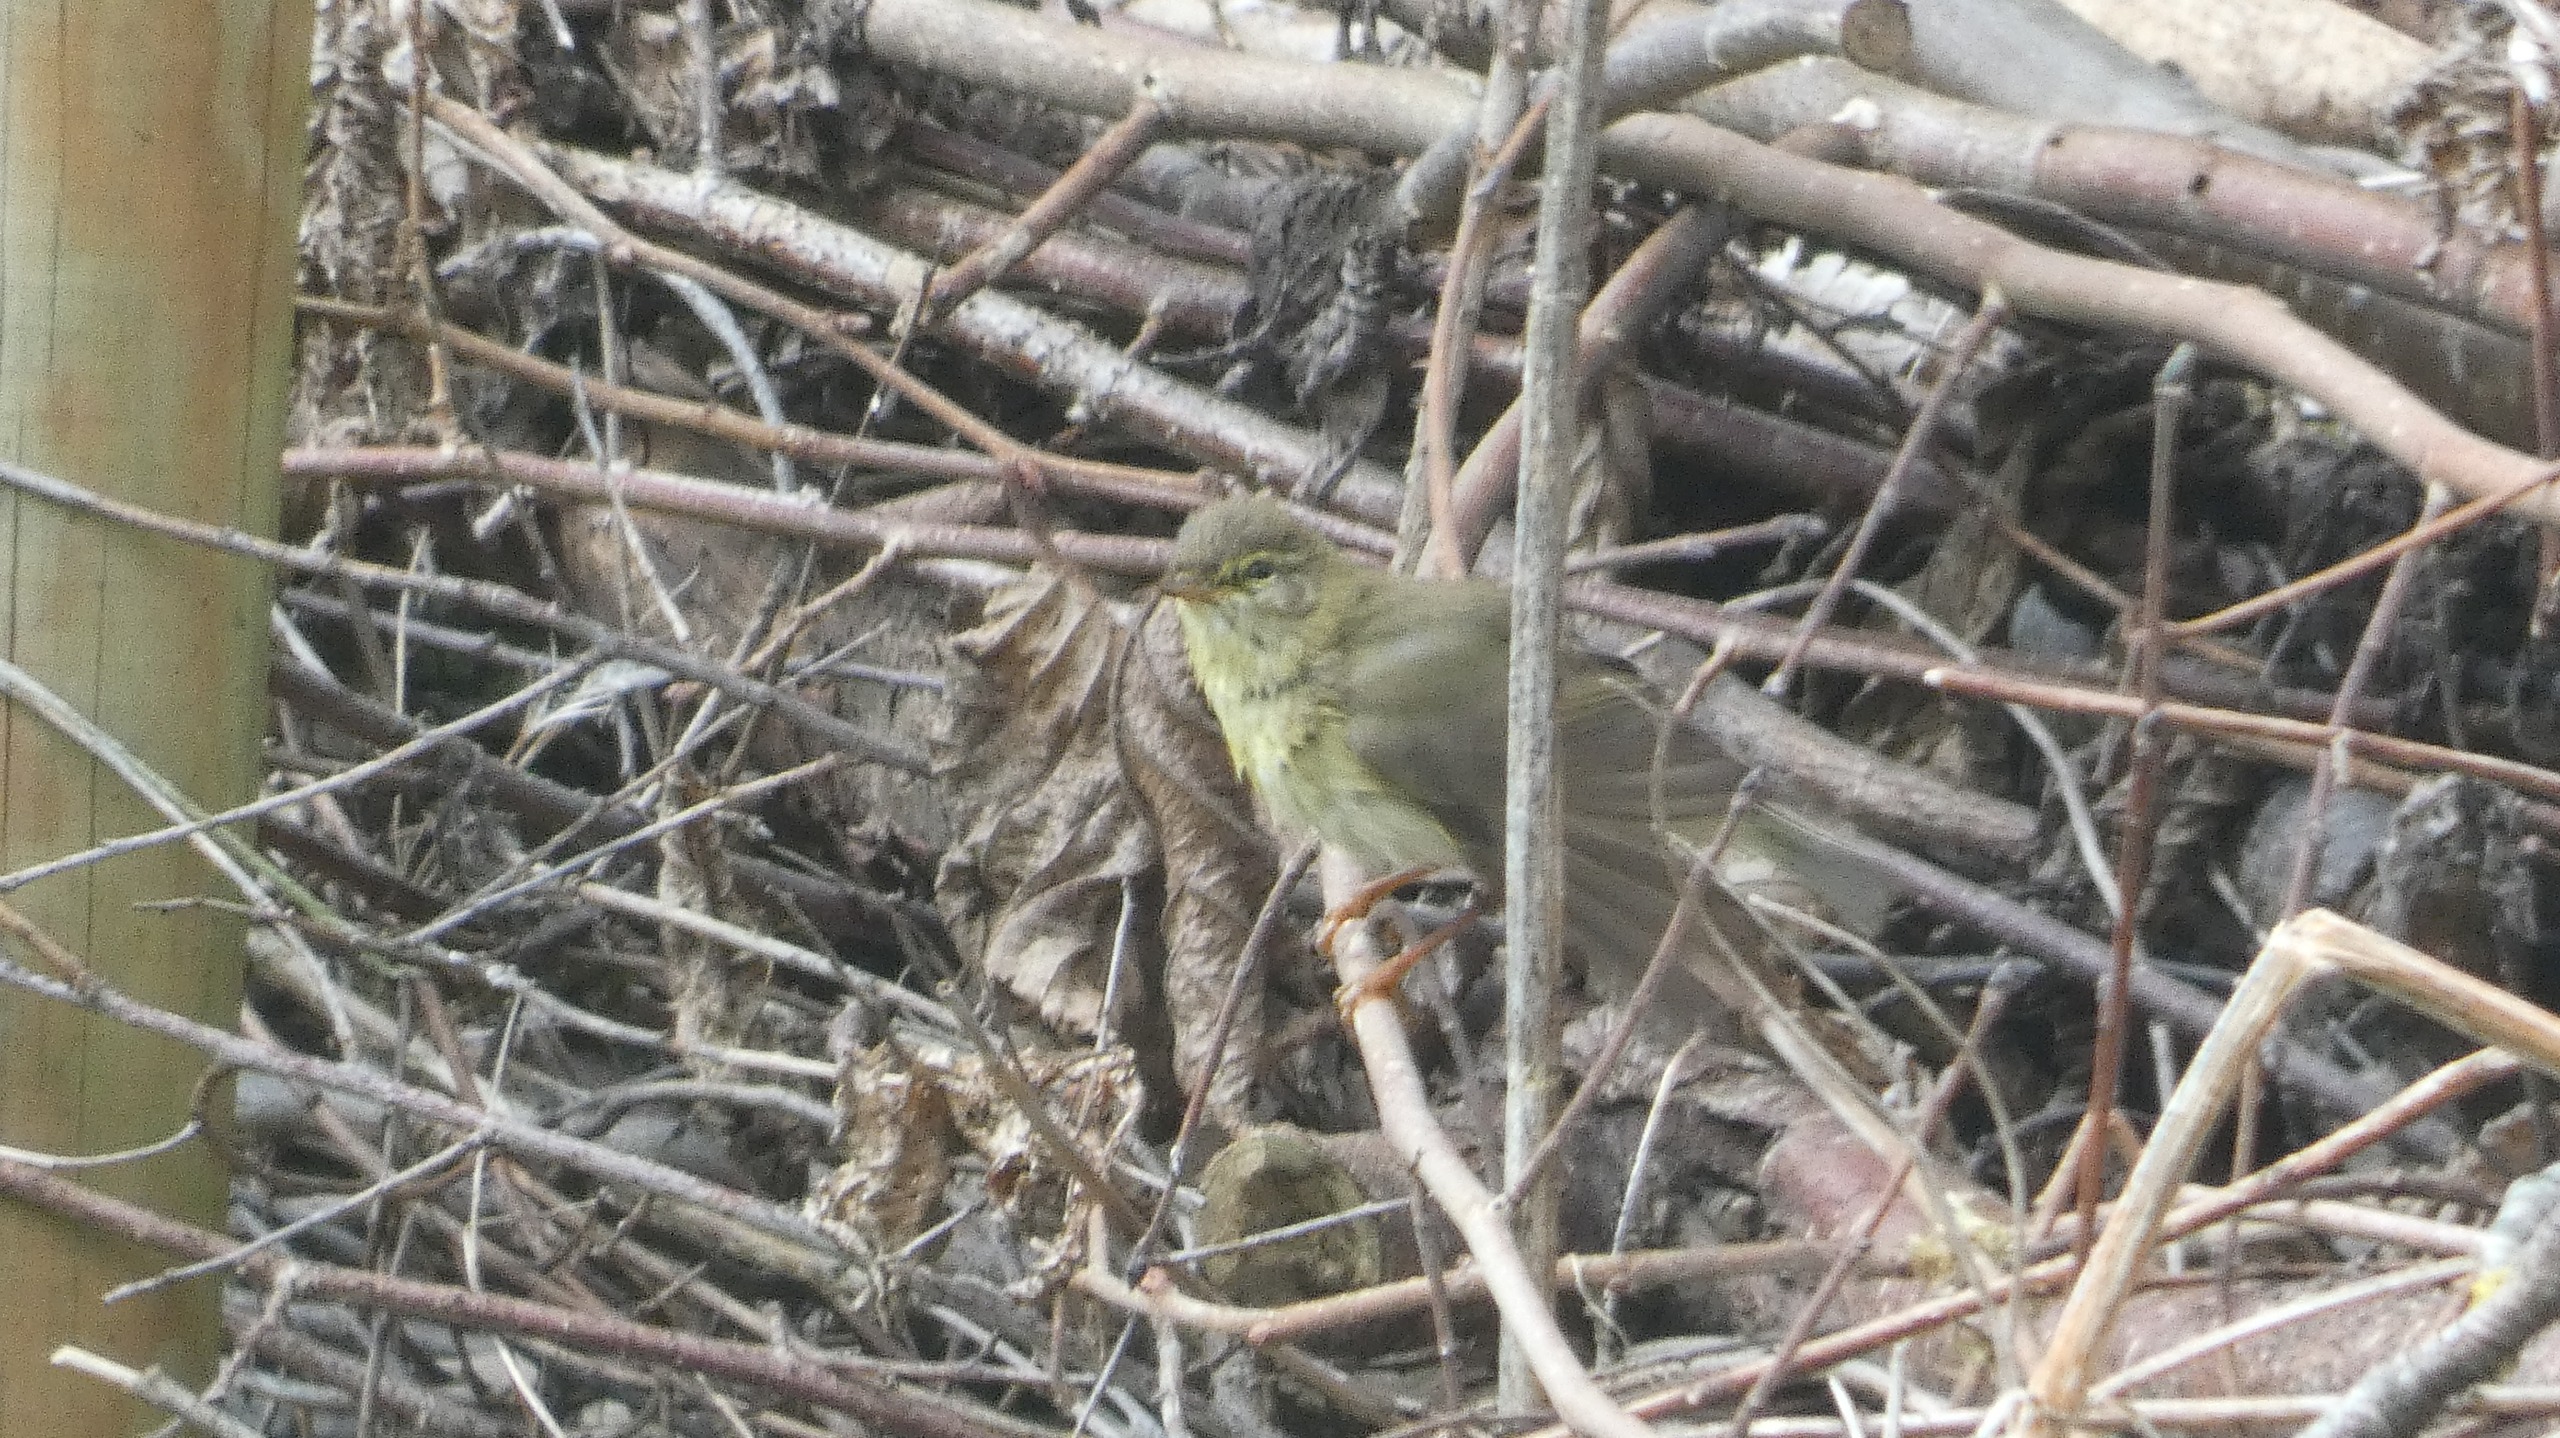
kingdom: Animalia
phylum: Chordata
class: Aves
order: Passeriformes
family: Phylloscopidae
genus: Phylloscopus
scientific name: Phylloscopus trochilus
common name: Løvsanger
